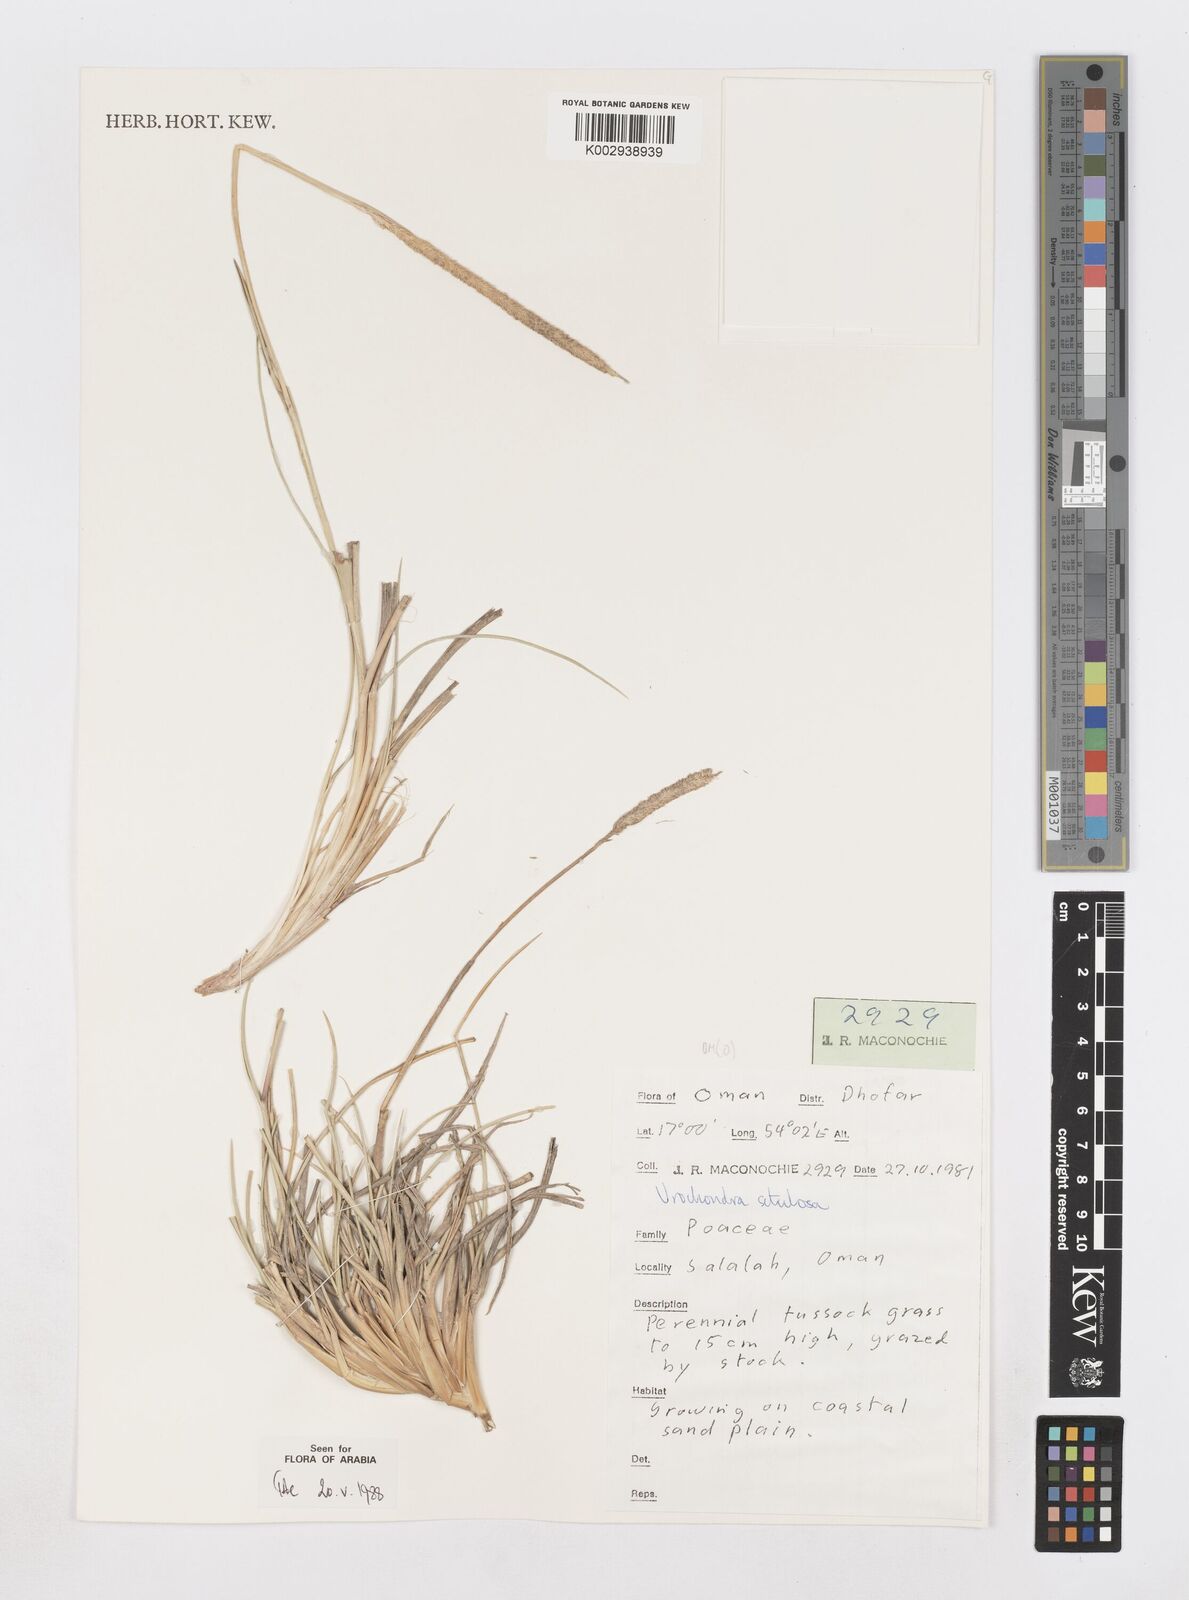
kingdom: Plantae
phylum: Tracheophyta
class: Liliopsida
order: Poales
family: Poaceae
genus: Urochondra
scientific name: Urochondra setulosa
